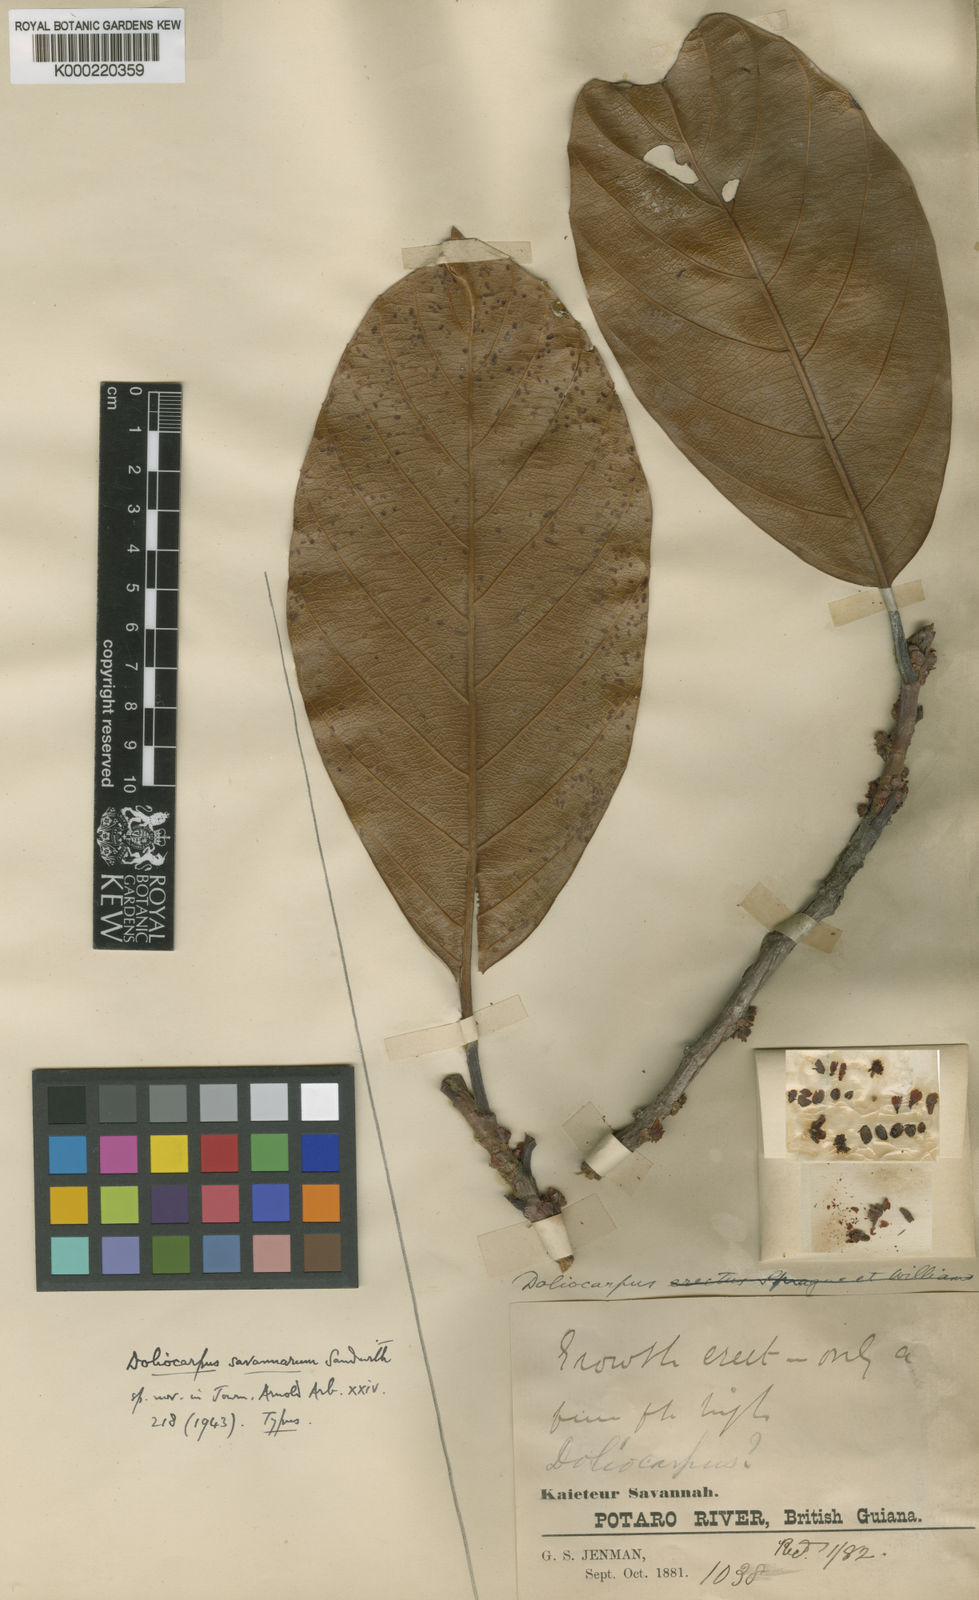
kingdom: Plantae
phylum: Tracheophyta
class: Magnoliopsida
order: Dilleniales
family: Dilleniaceae
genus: Doliocarpus
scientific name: Doliocarpus savannarum
